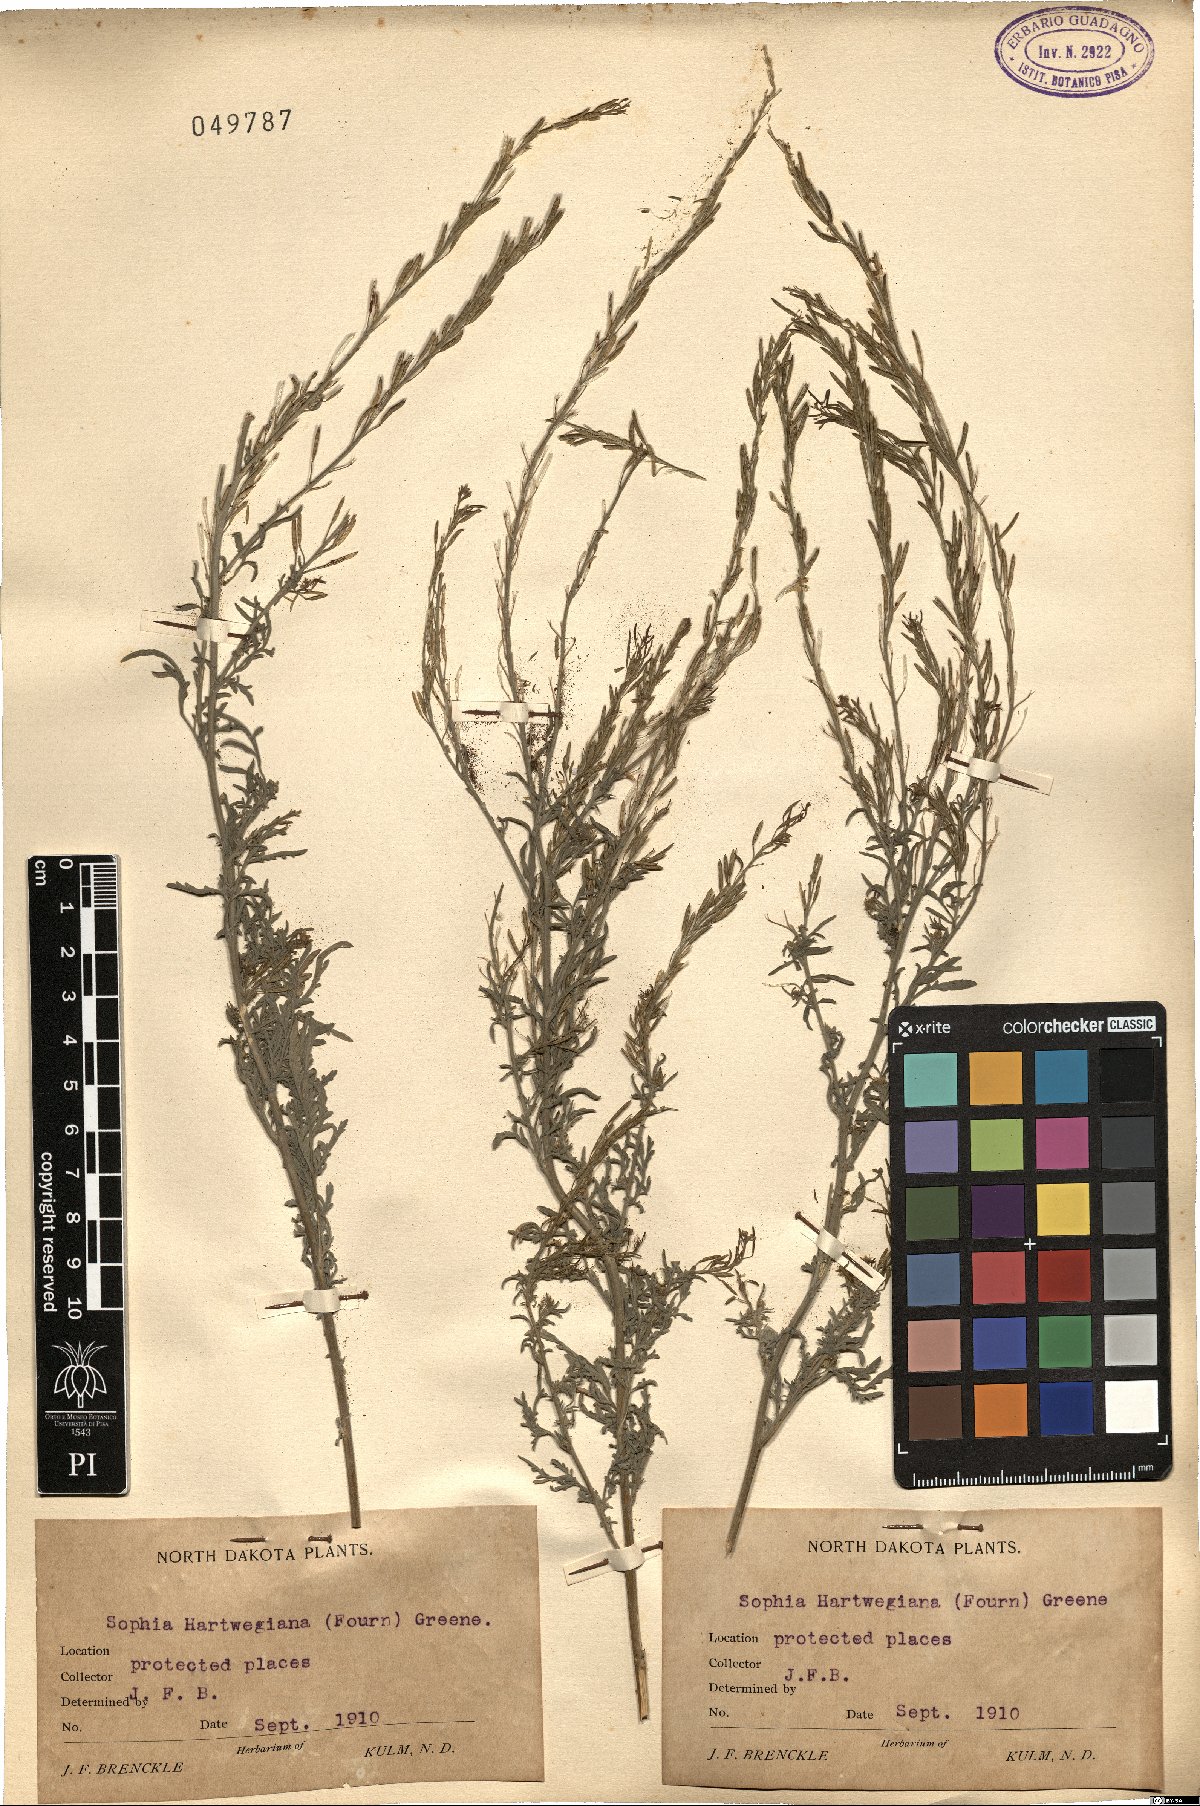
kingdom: Plantae
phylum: Tracheophyta
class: Magnoliopsida
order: Brassicales
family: Brassicaceae
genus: Descurainia
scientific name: Descurainia hartwegiana
